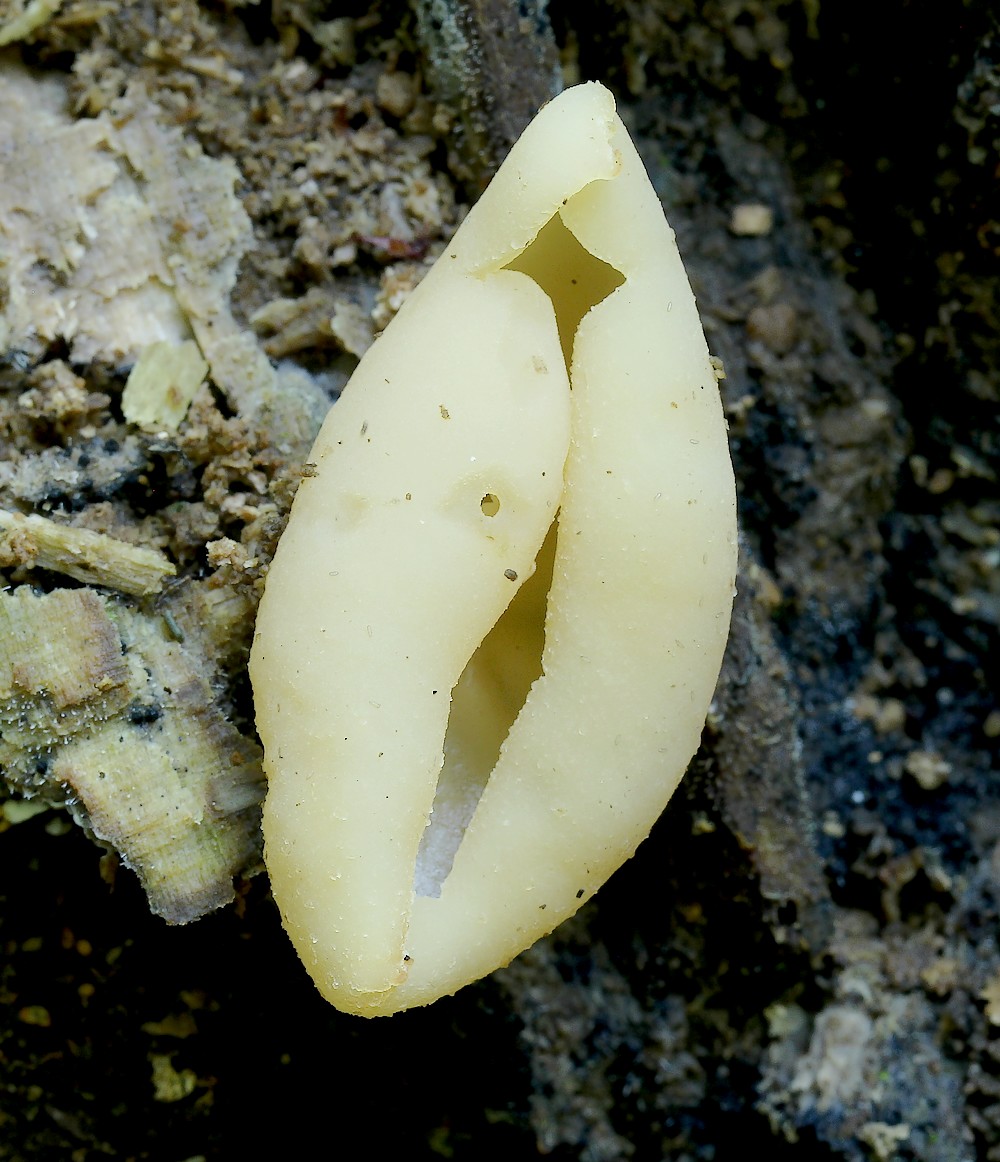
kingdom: Fungi
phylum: Ascomycota
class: Pezizomycetes
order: Pezizales
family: Pezizaceae
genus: Peziza
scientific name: Peziza varia
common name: Ved-bægersvamp
